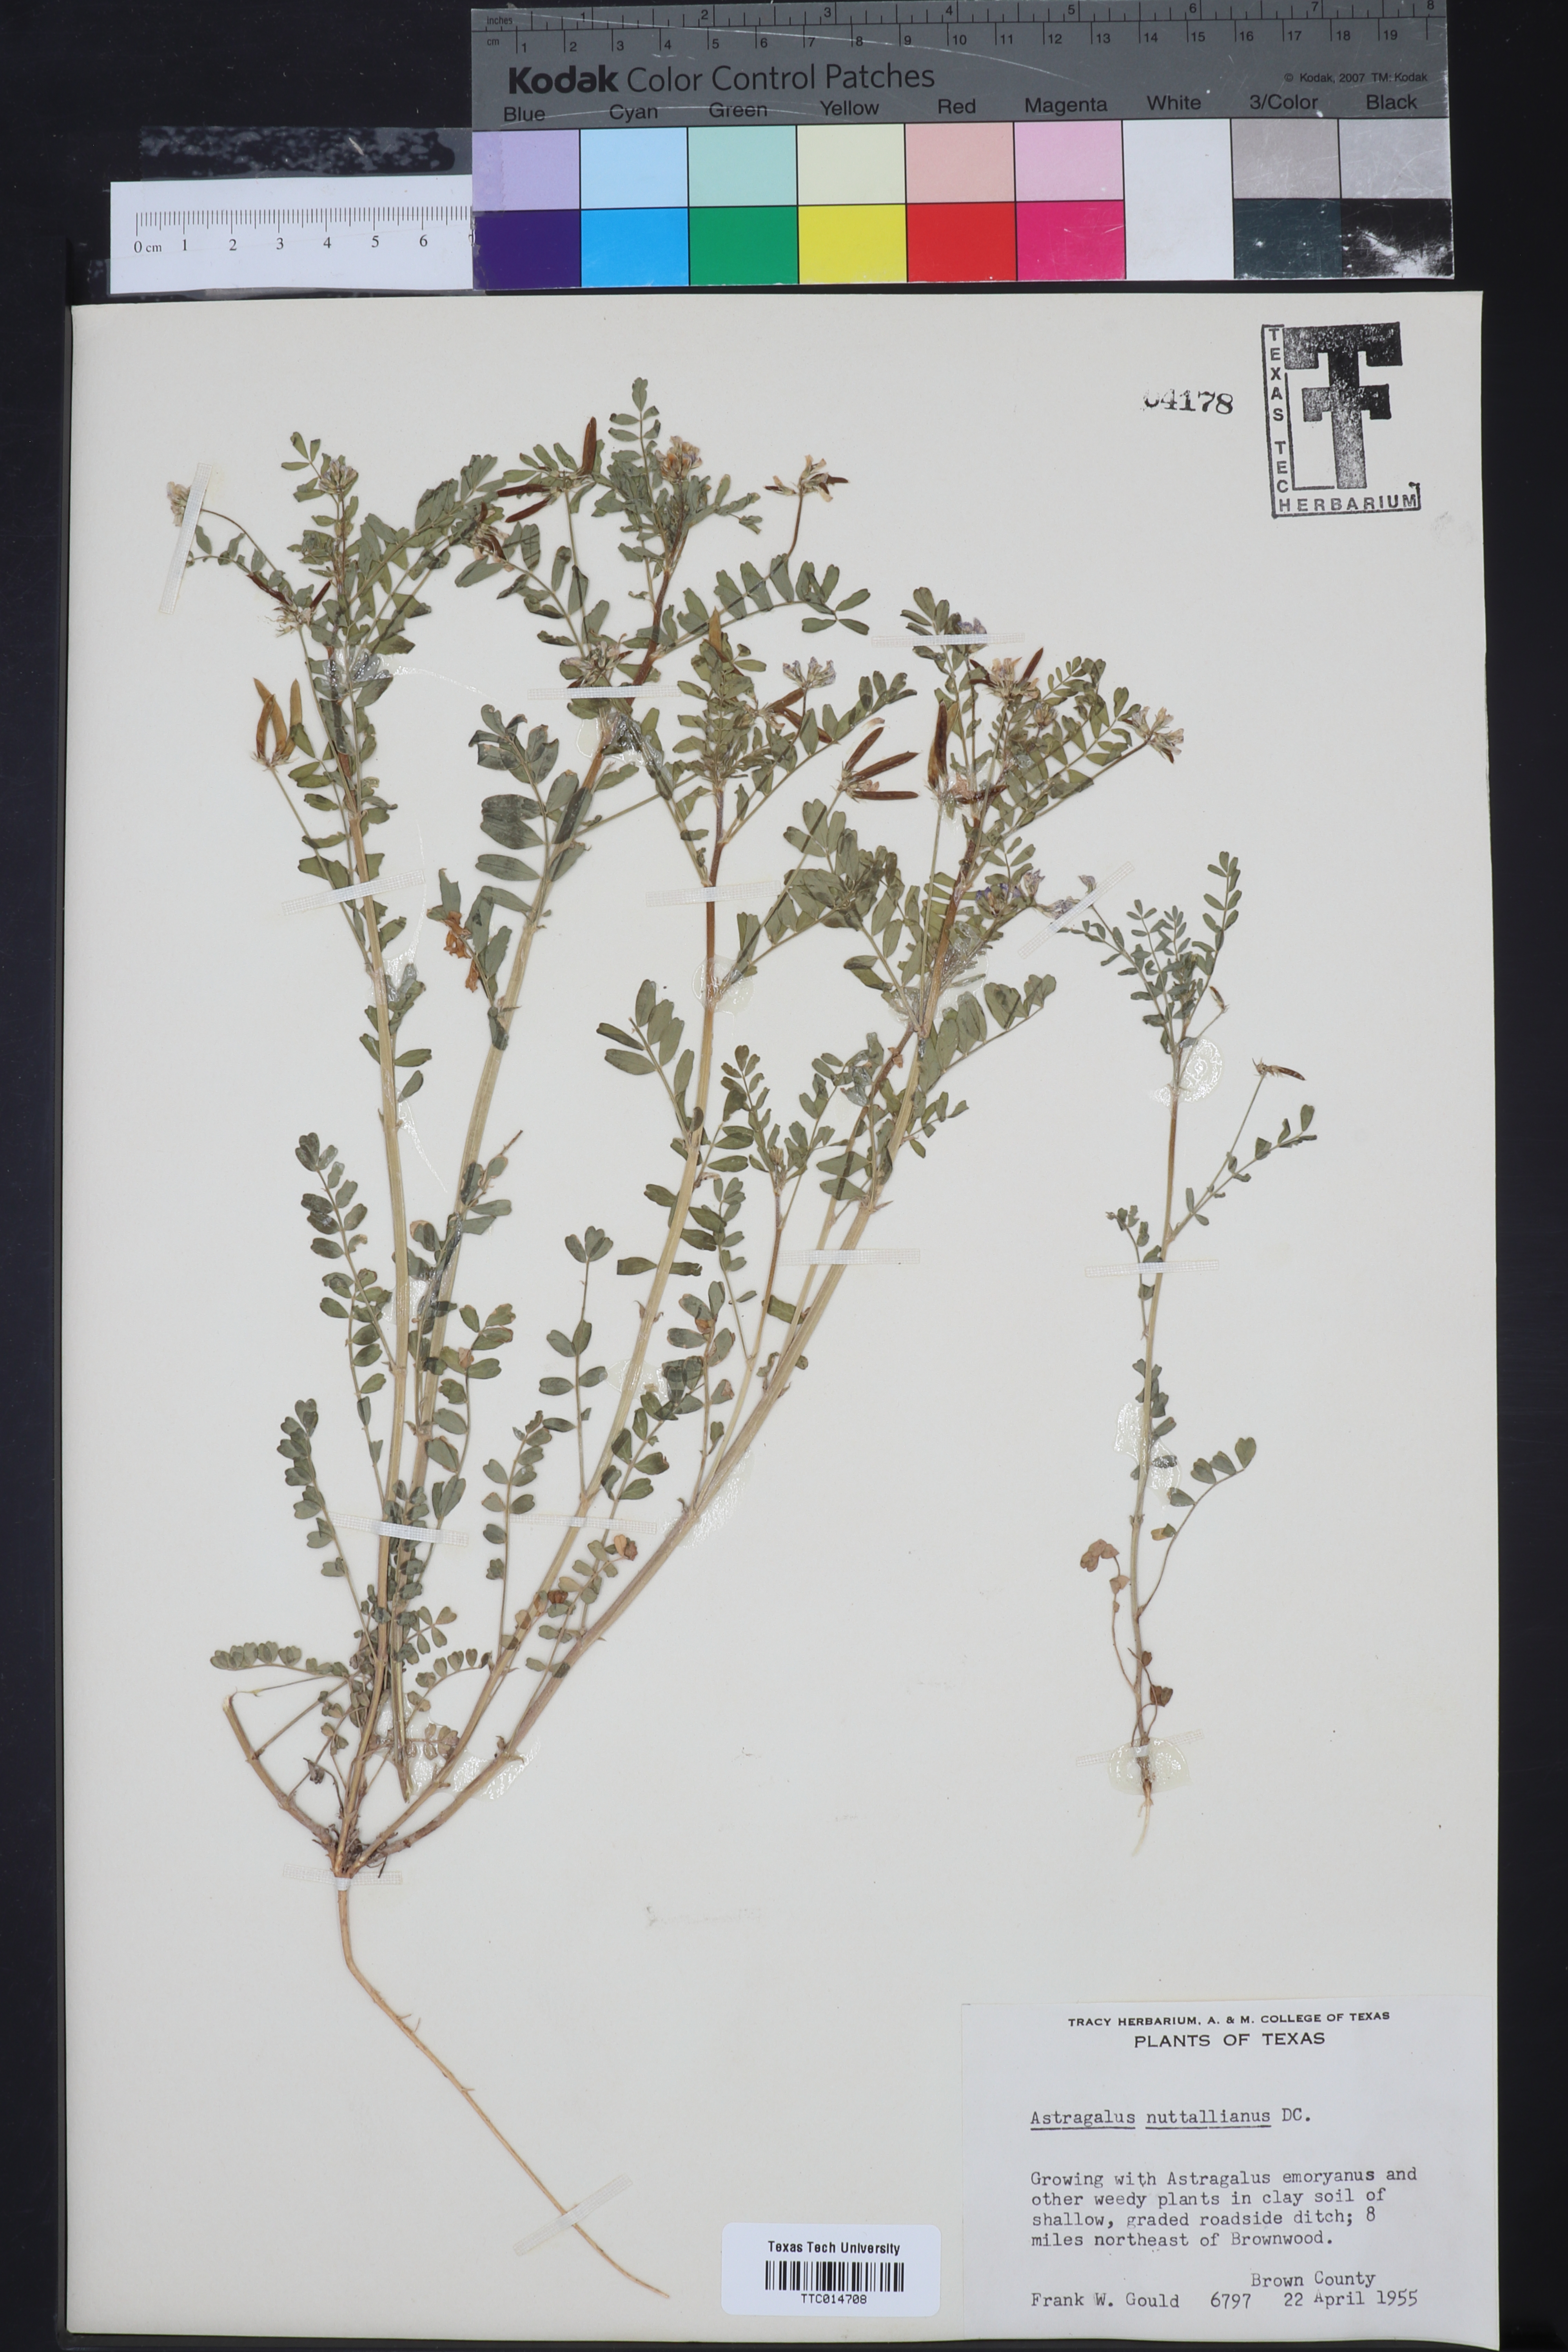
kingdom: Plantae
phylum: Tracheophyta
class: Magnoliopsida
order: Fabales
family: Fabaceae
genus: Astragalus
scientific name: Astragalus nuttallianus
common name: Smallflowered milkvetch
